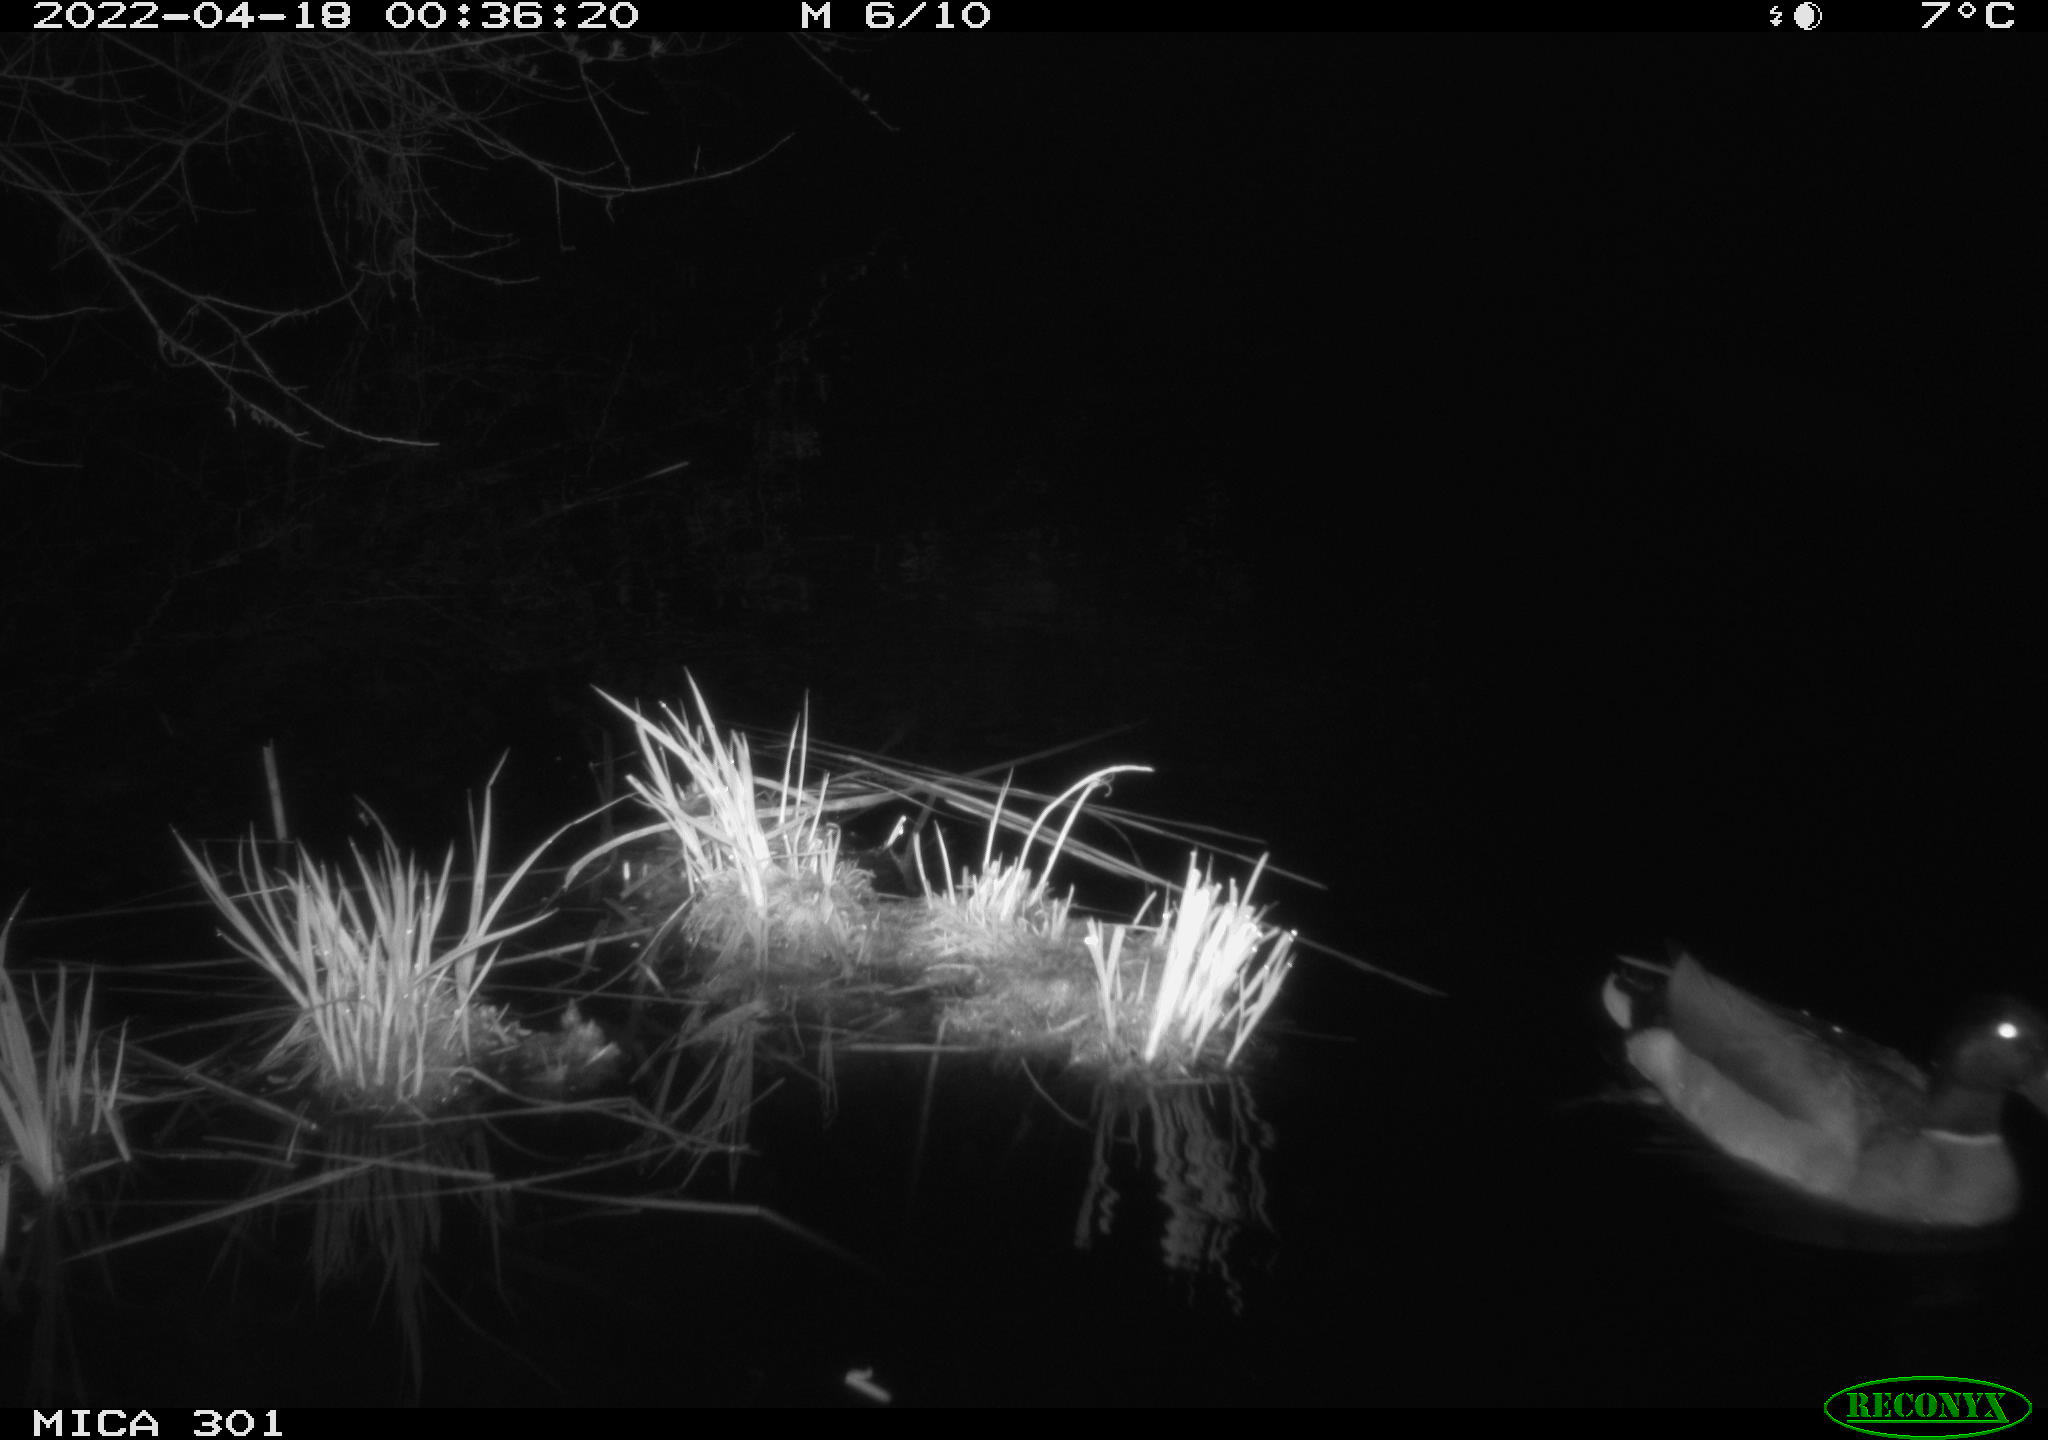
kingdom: Animalia
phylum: Chordata
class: Aves
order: Anseriformes
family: Anatidae
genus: Anas
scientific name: Anas platyrhynchos
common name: Mallard
